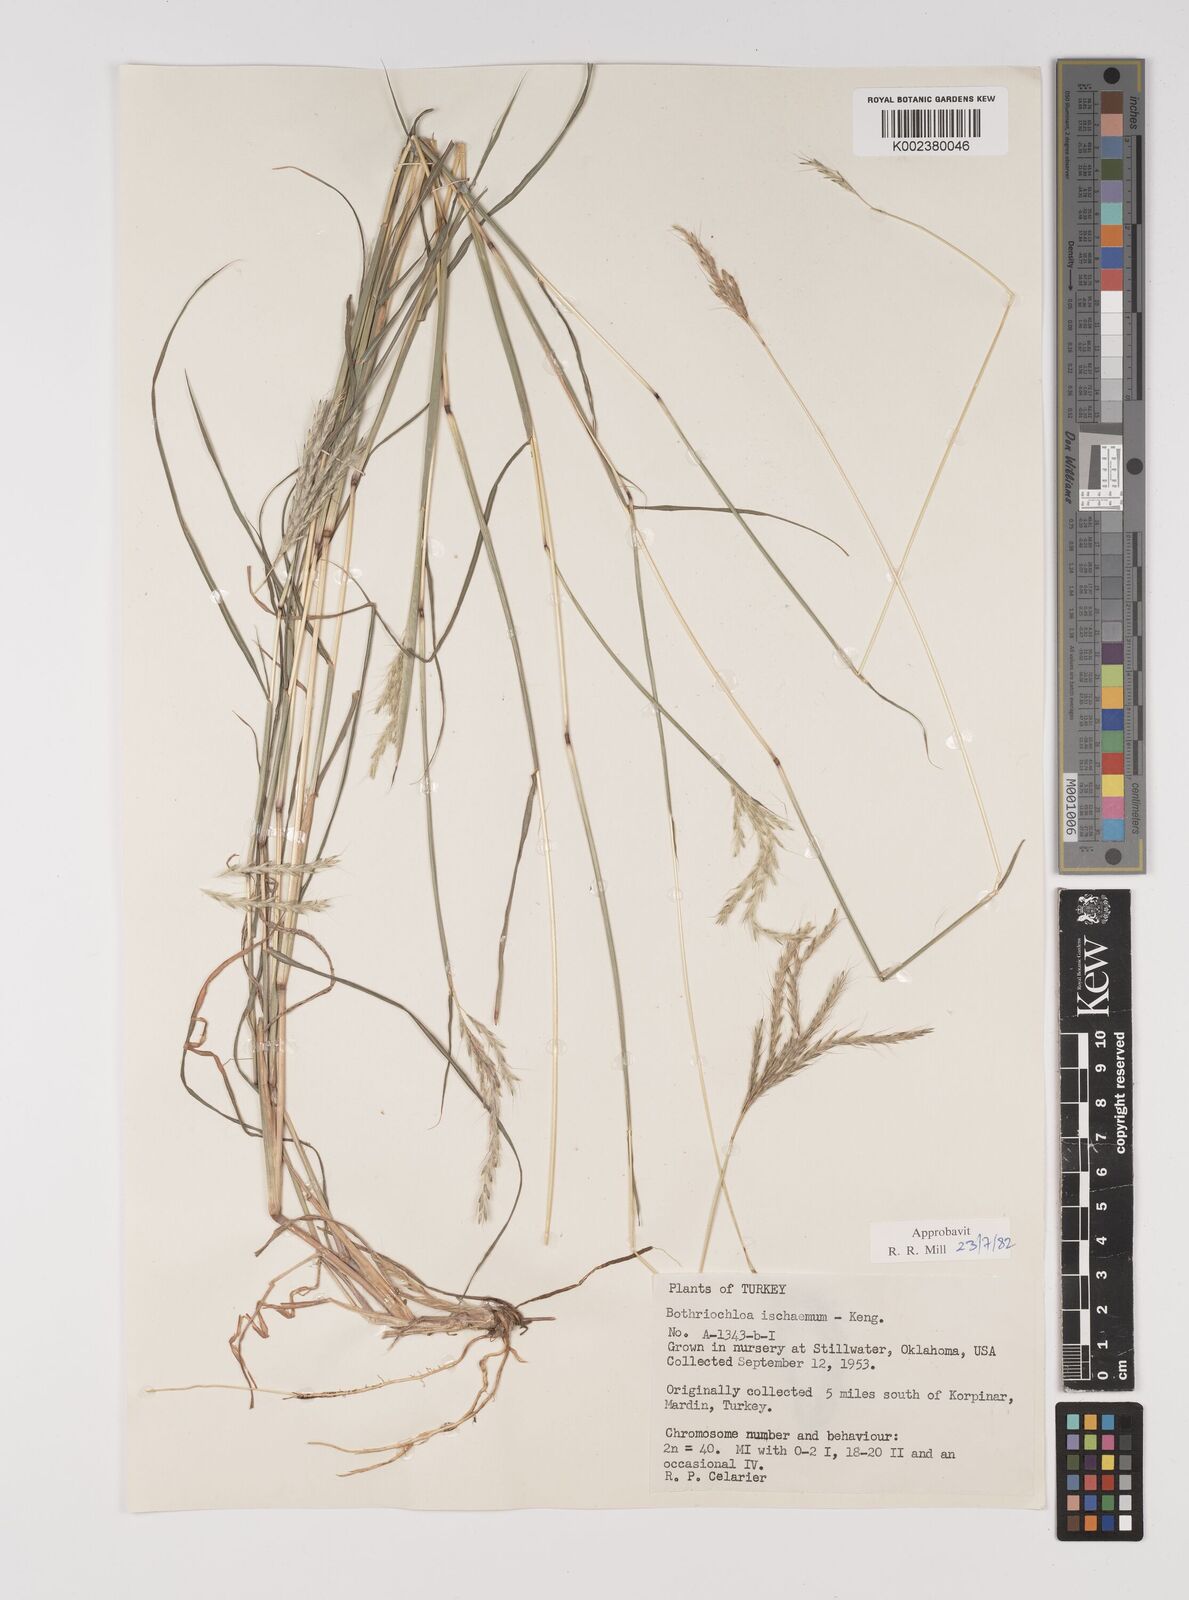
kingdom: Plantae
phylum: Tracheophyta
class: Liliopsida
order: Poales
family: Poaceae
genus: Bothriochloa
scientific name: Bothriochloa ischaemum
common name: Yellow bluestem
